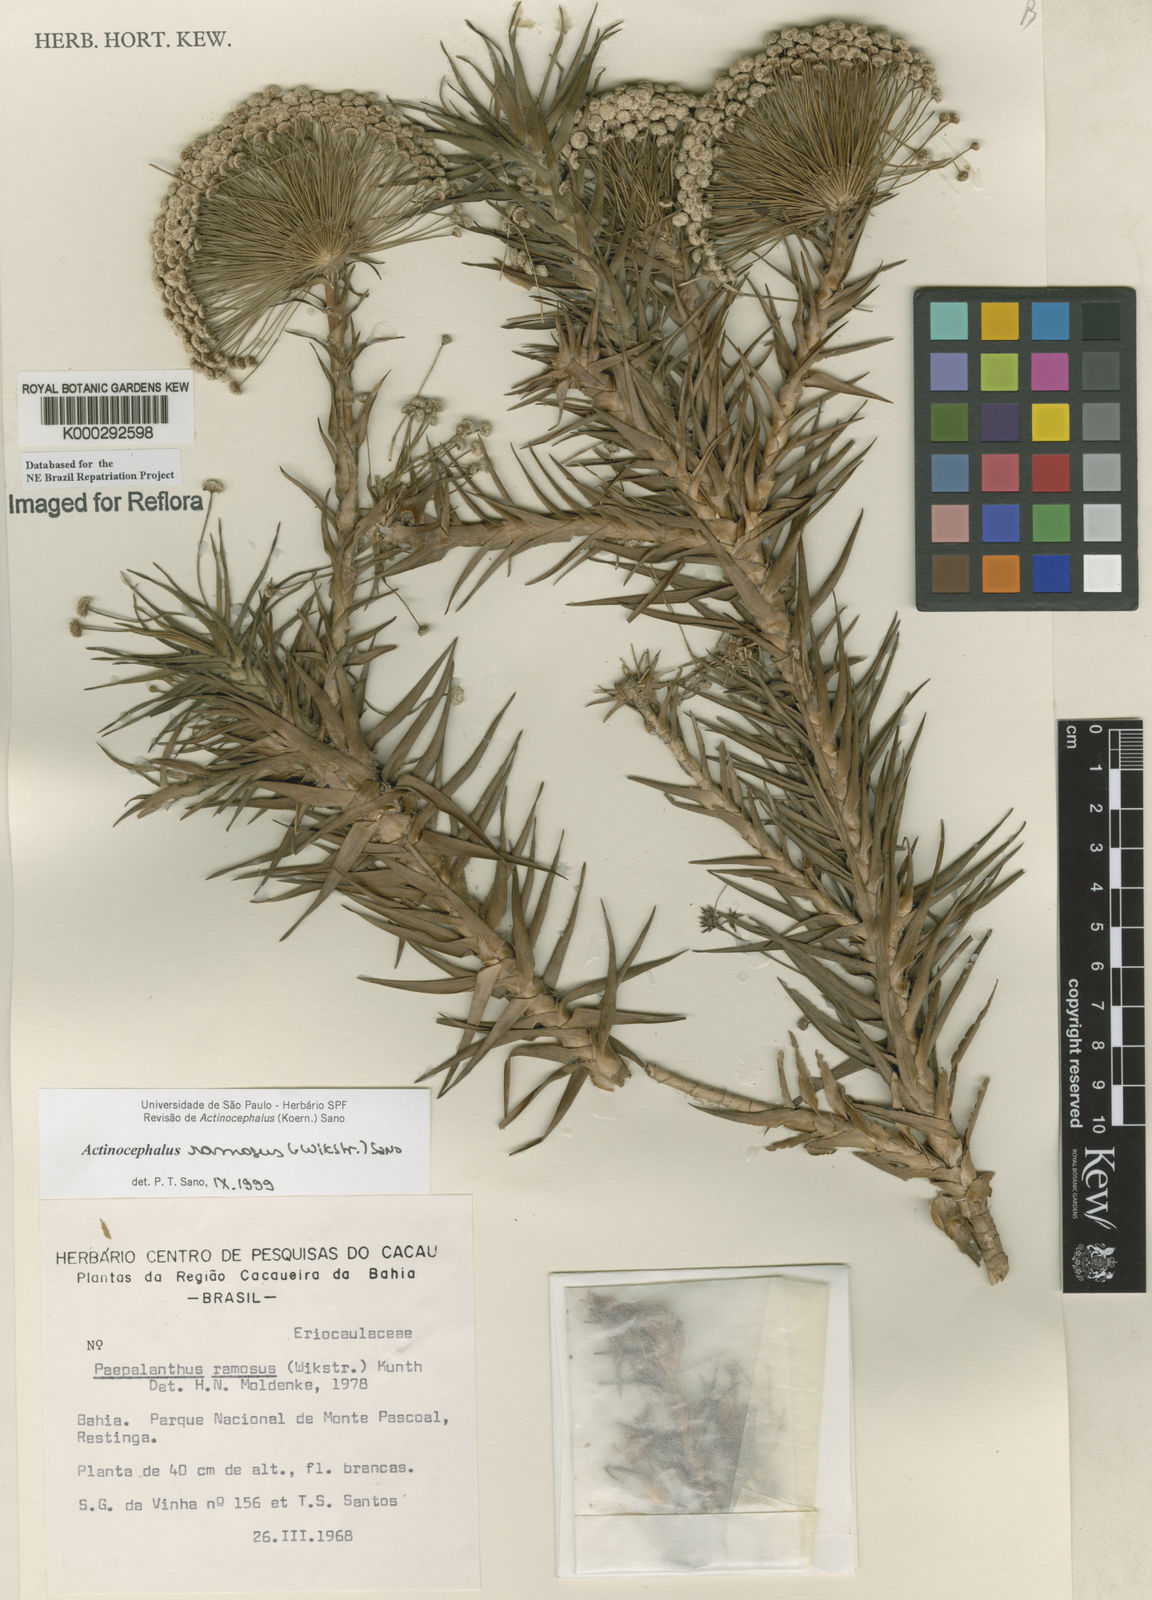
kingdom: Plantae
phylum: Tracheophyta
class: Liliopsida
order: Poales
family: Eriocaulaceae
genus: Paepalanthus
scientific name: Paepalanthus ramosus
